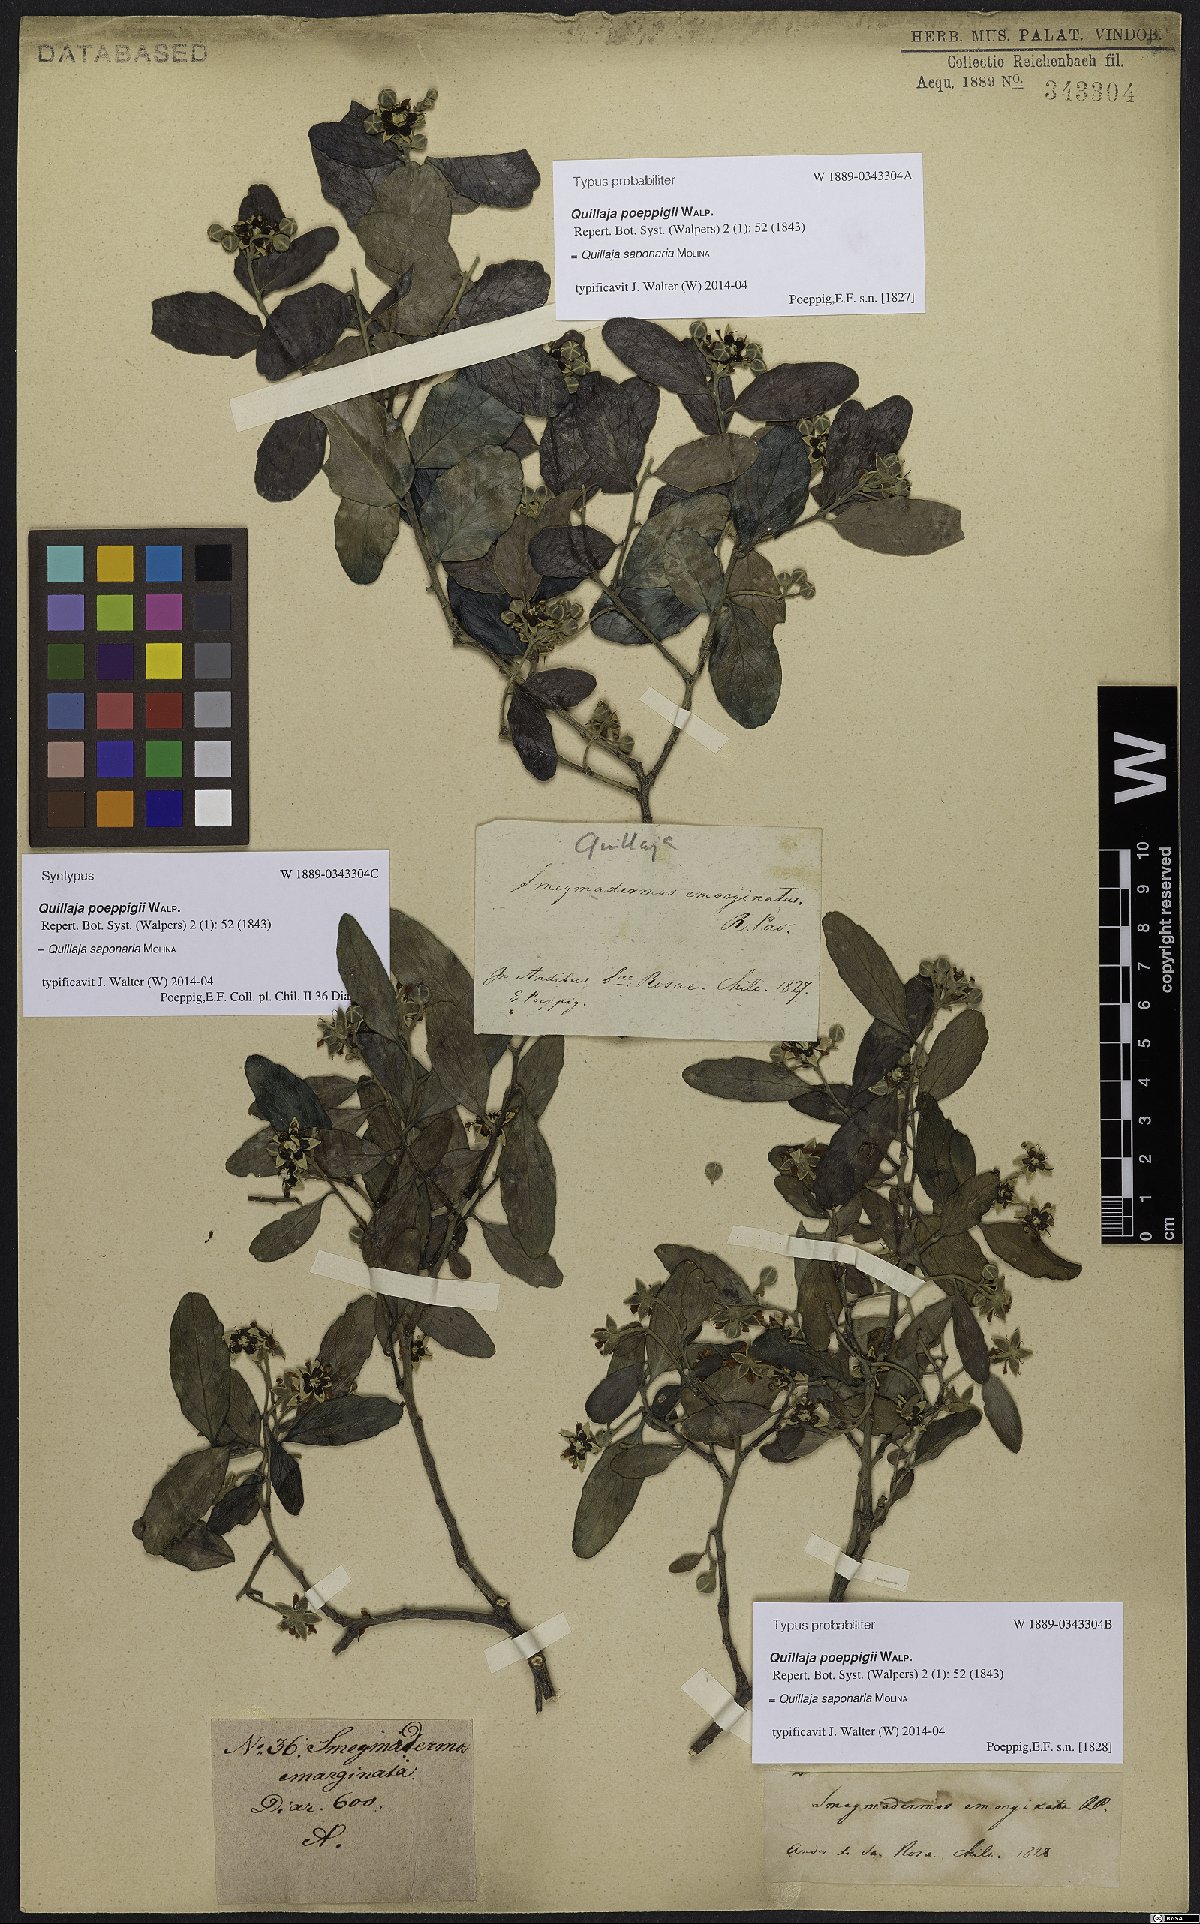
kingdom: Plantae
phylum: Tracheophyta
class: Magnoliopsida
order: Fabales
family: Quillajaceae
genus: Quillaja
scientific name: Quillaja saponaria
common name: Murillo's-bark
